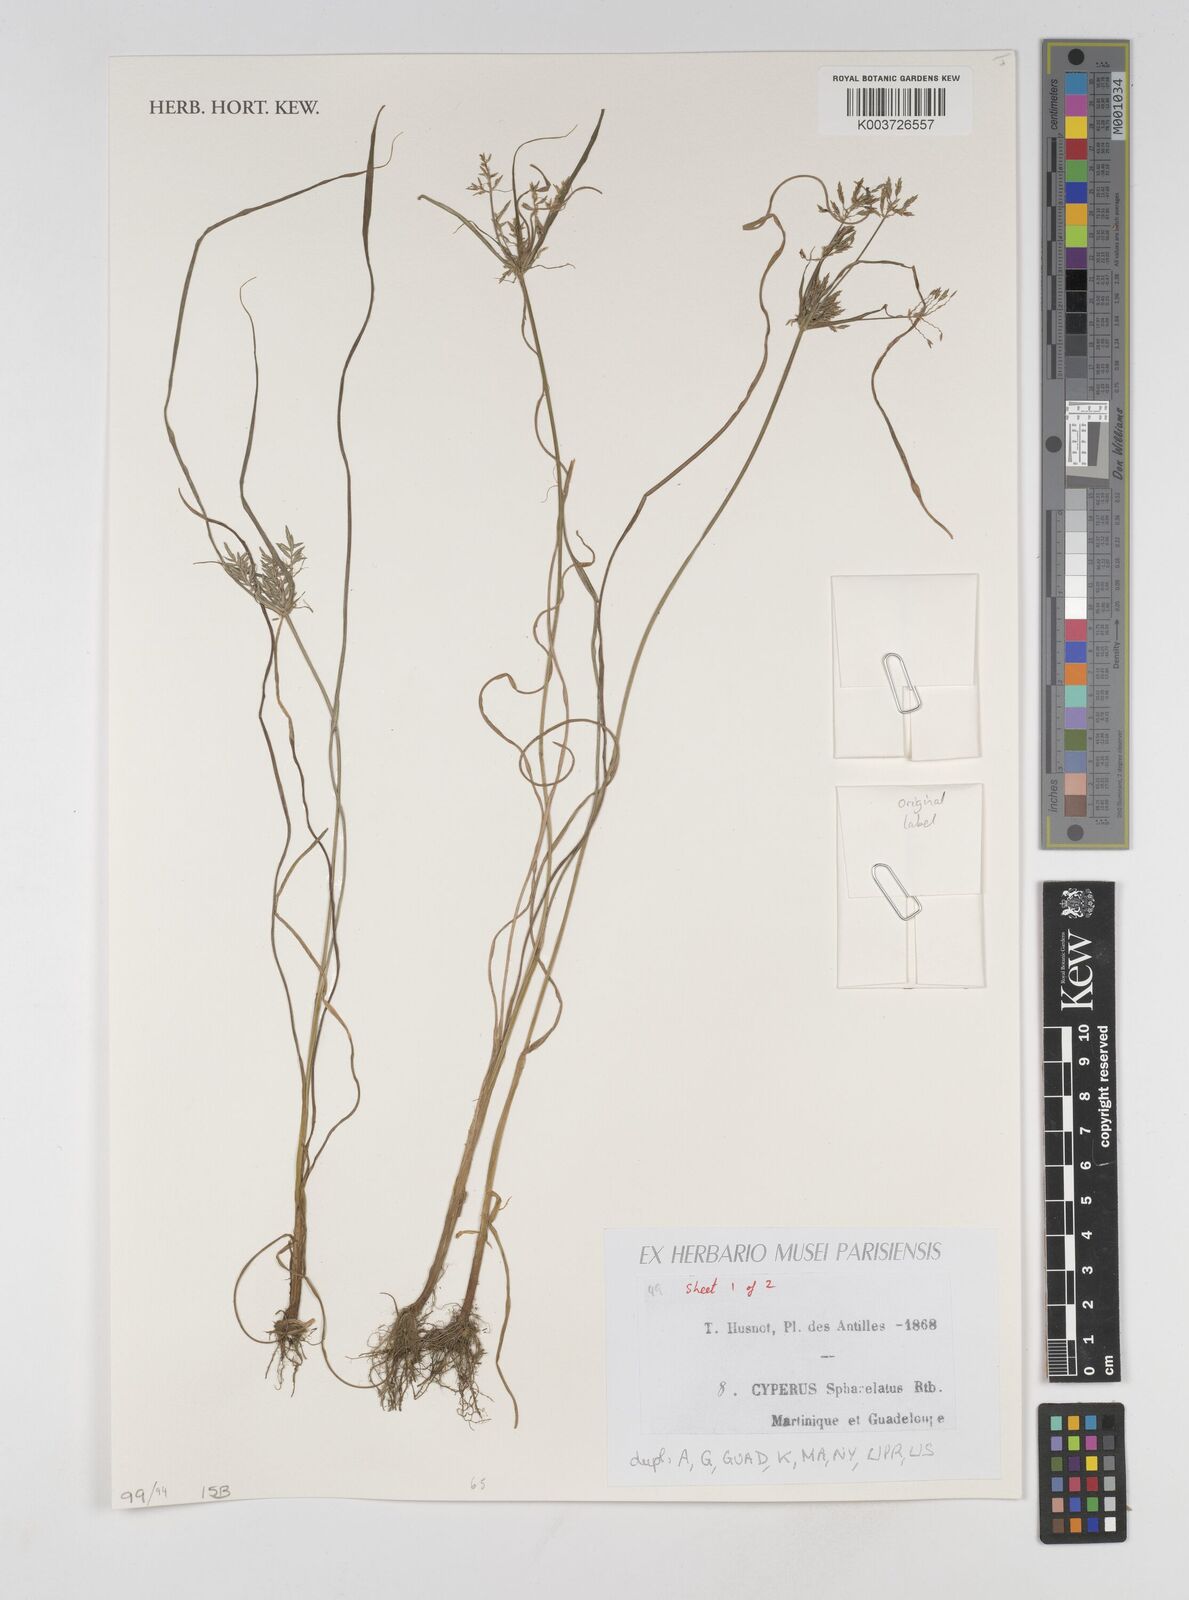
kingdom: Plantae
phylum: Tracheophyta
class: Liliopsida
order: Poales
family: Cyperaceae
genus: Cyperus
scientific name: Cyperus sphacelatus
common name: Roadside flatsedge
